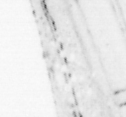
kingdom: Animalia
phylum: Chordata
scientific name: Chordata
